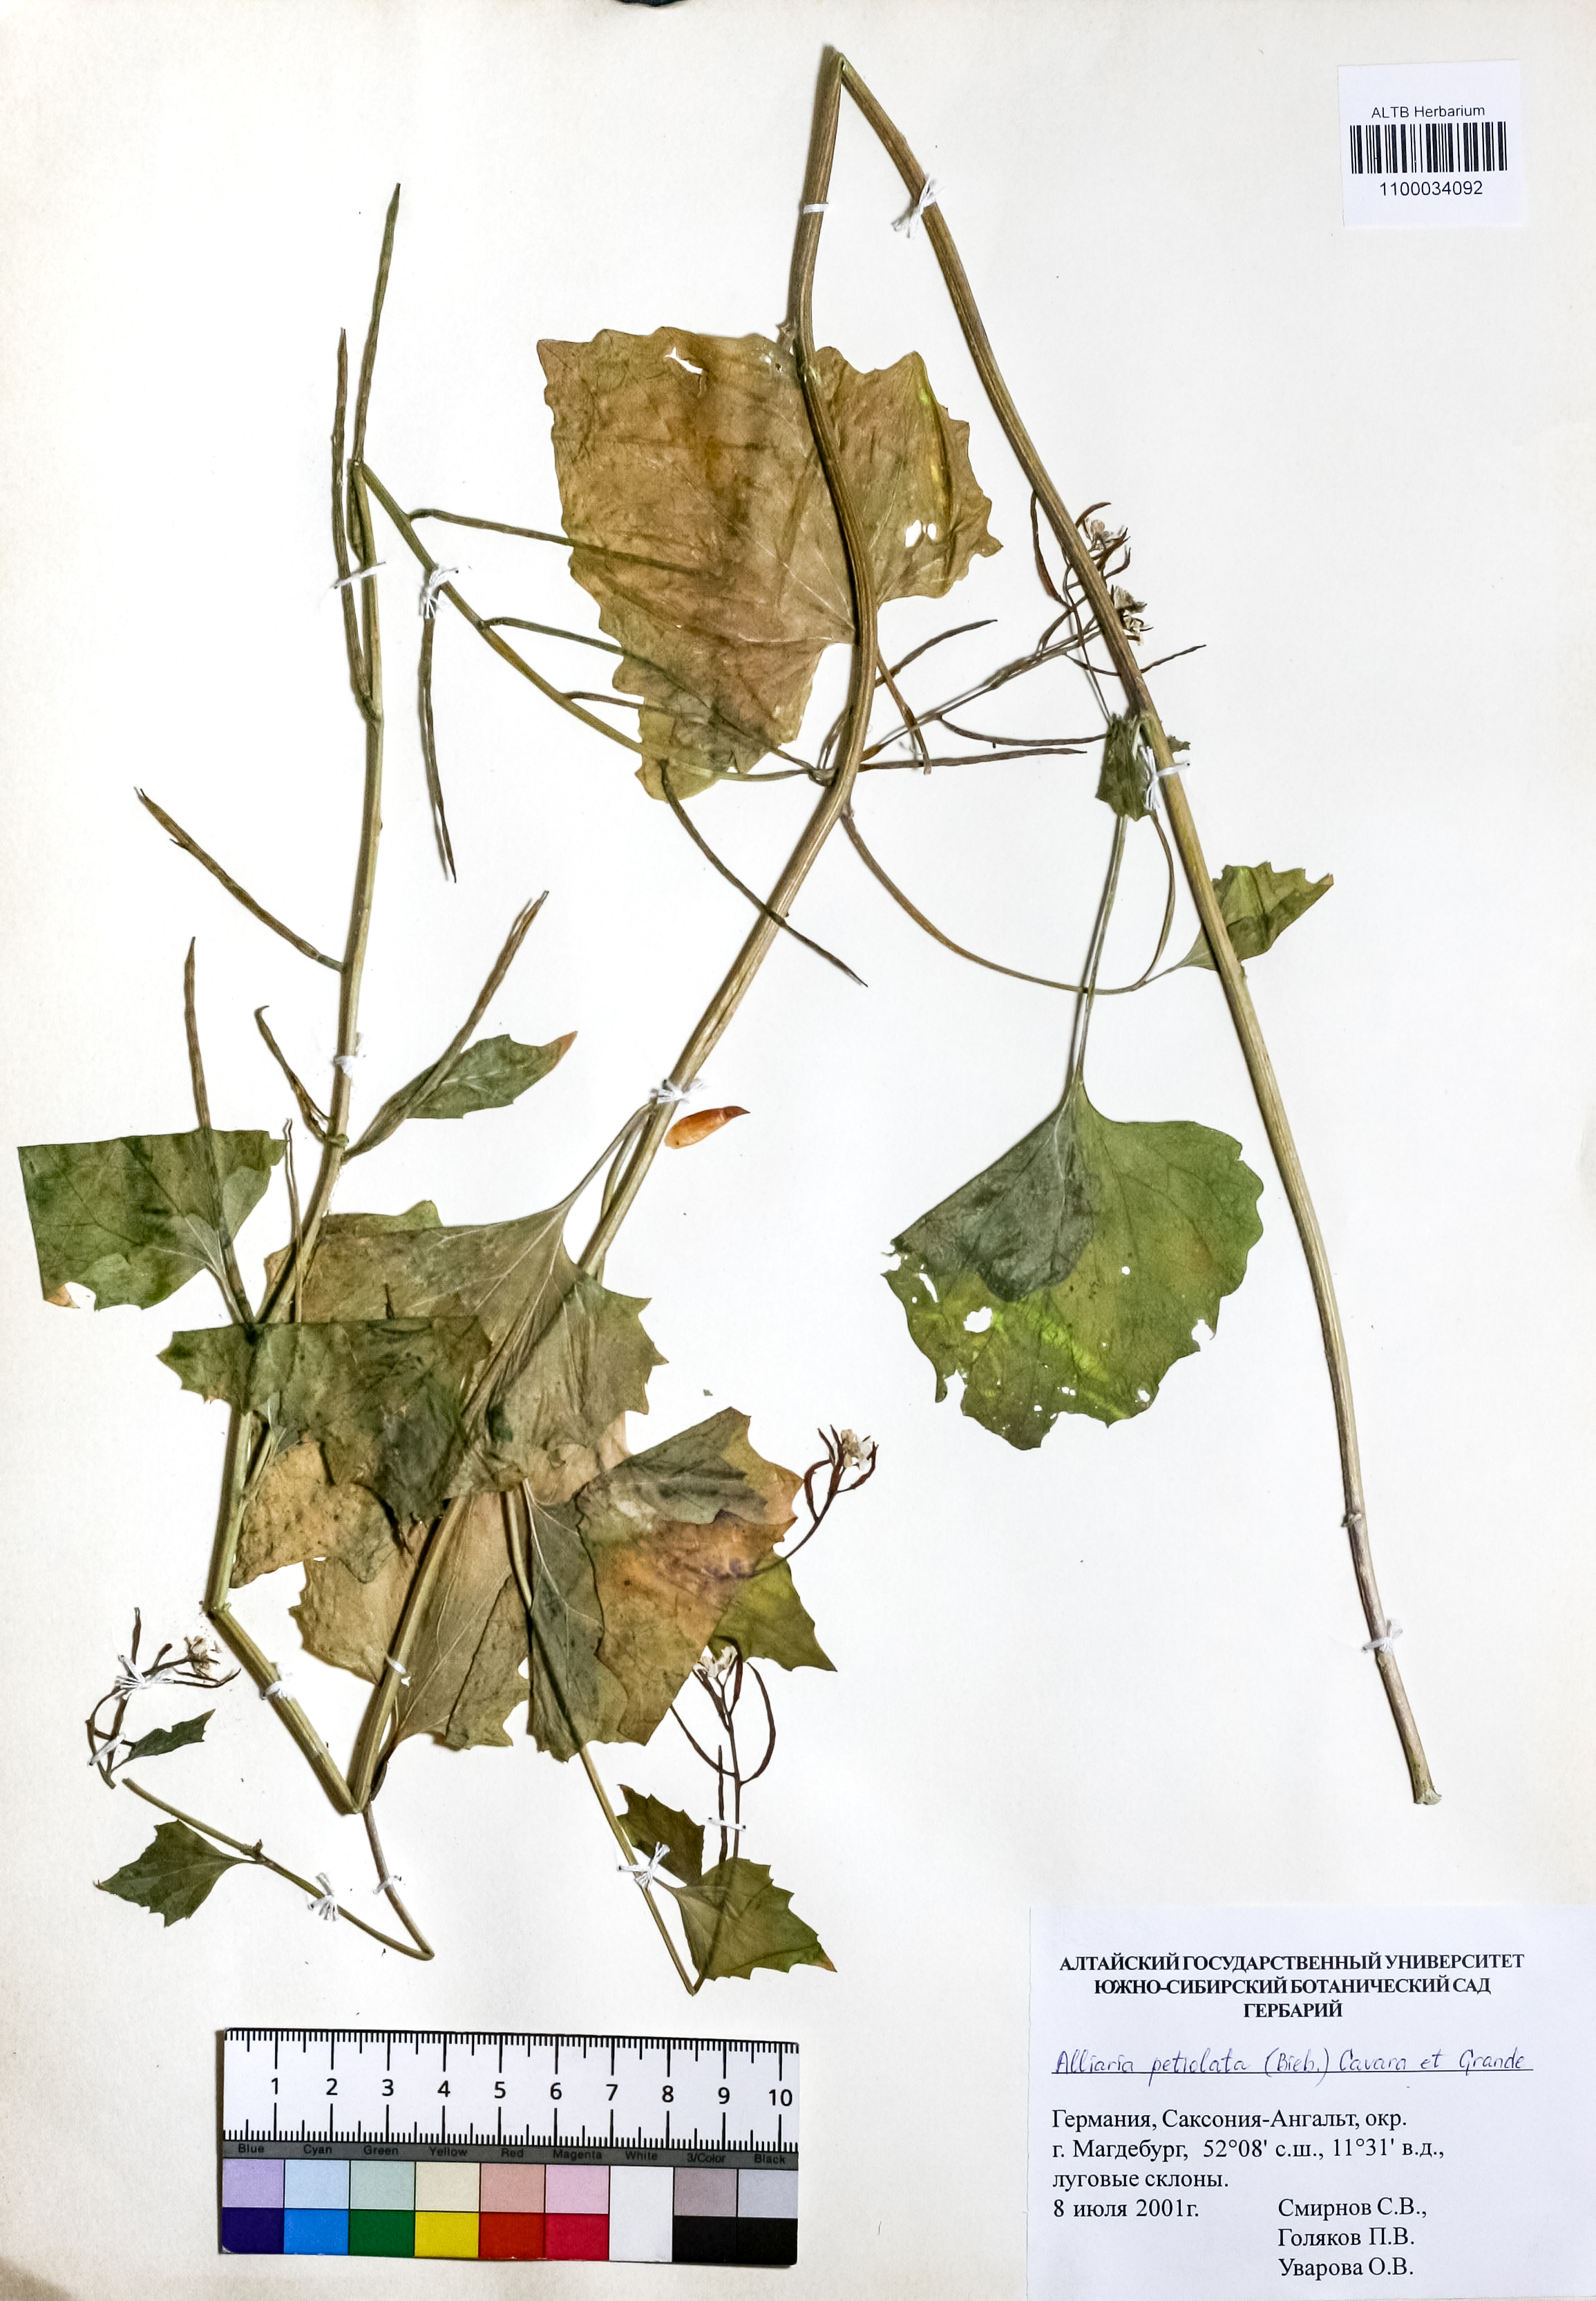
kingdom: Plantae
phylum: Tracheophyta
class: Magnoliopsida
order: Brassicales
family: Brassicaceae
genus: Alliaria
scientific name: Alliaria petiolata
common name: Garlic mustard
